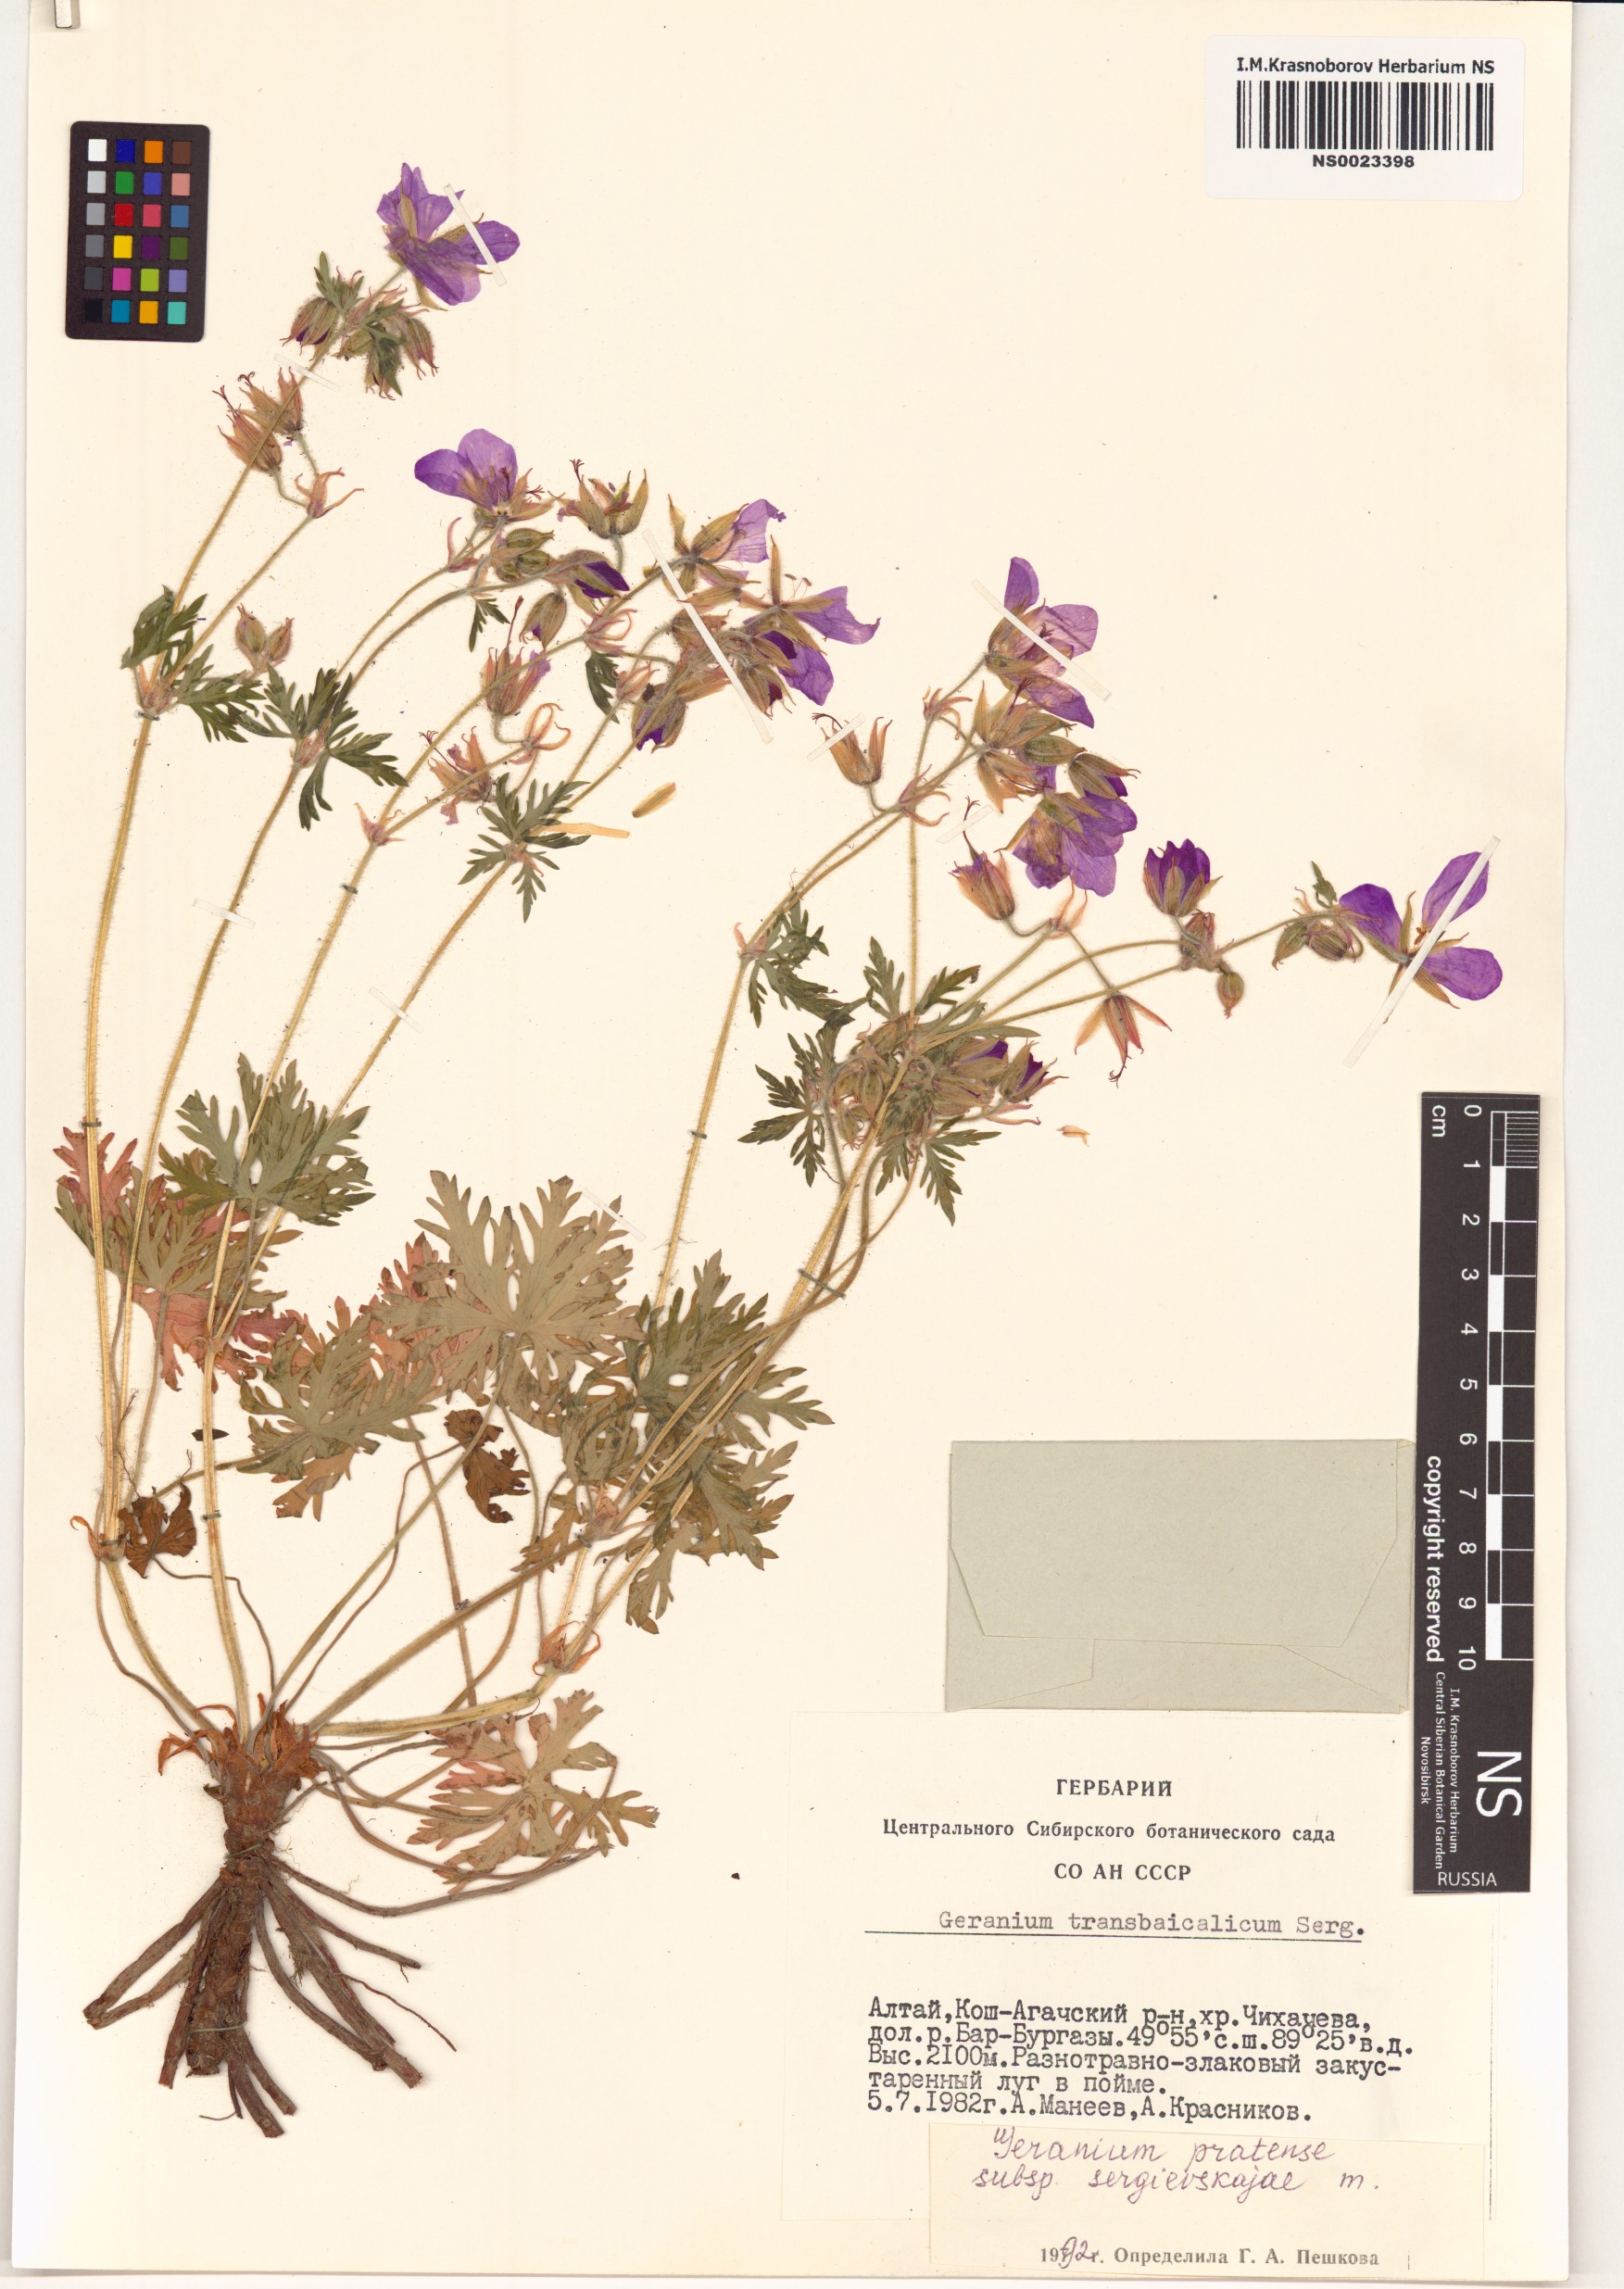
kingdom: Plantae
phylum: Tracheophyta
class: Magnoliopsida
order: Geraniales
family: Geraniaceae
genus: Geranium
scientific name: Geranium pratense
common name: Meadow crane's-bill
